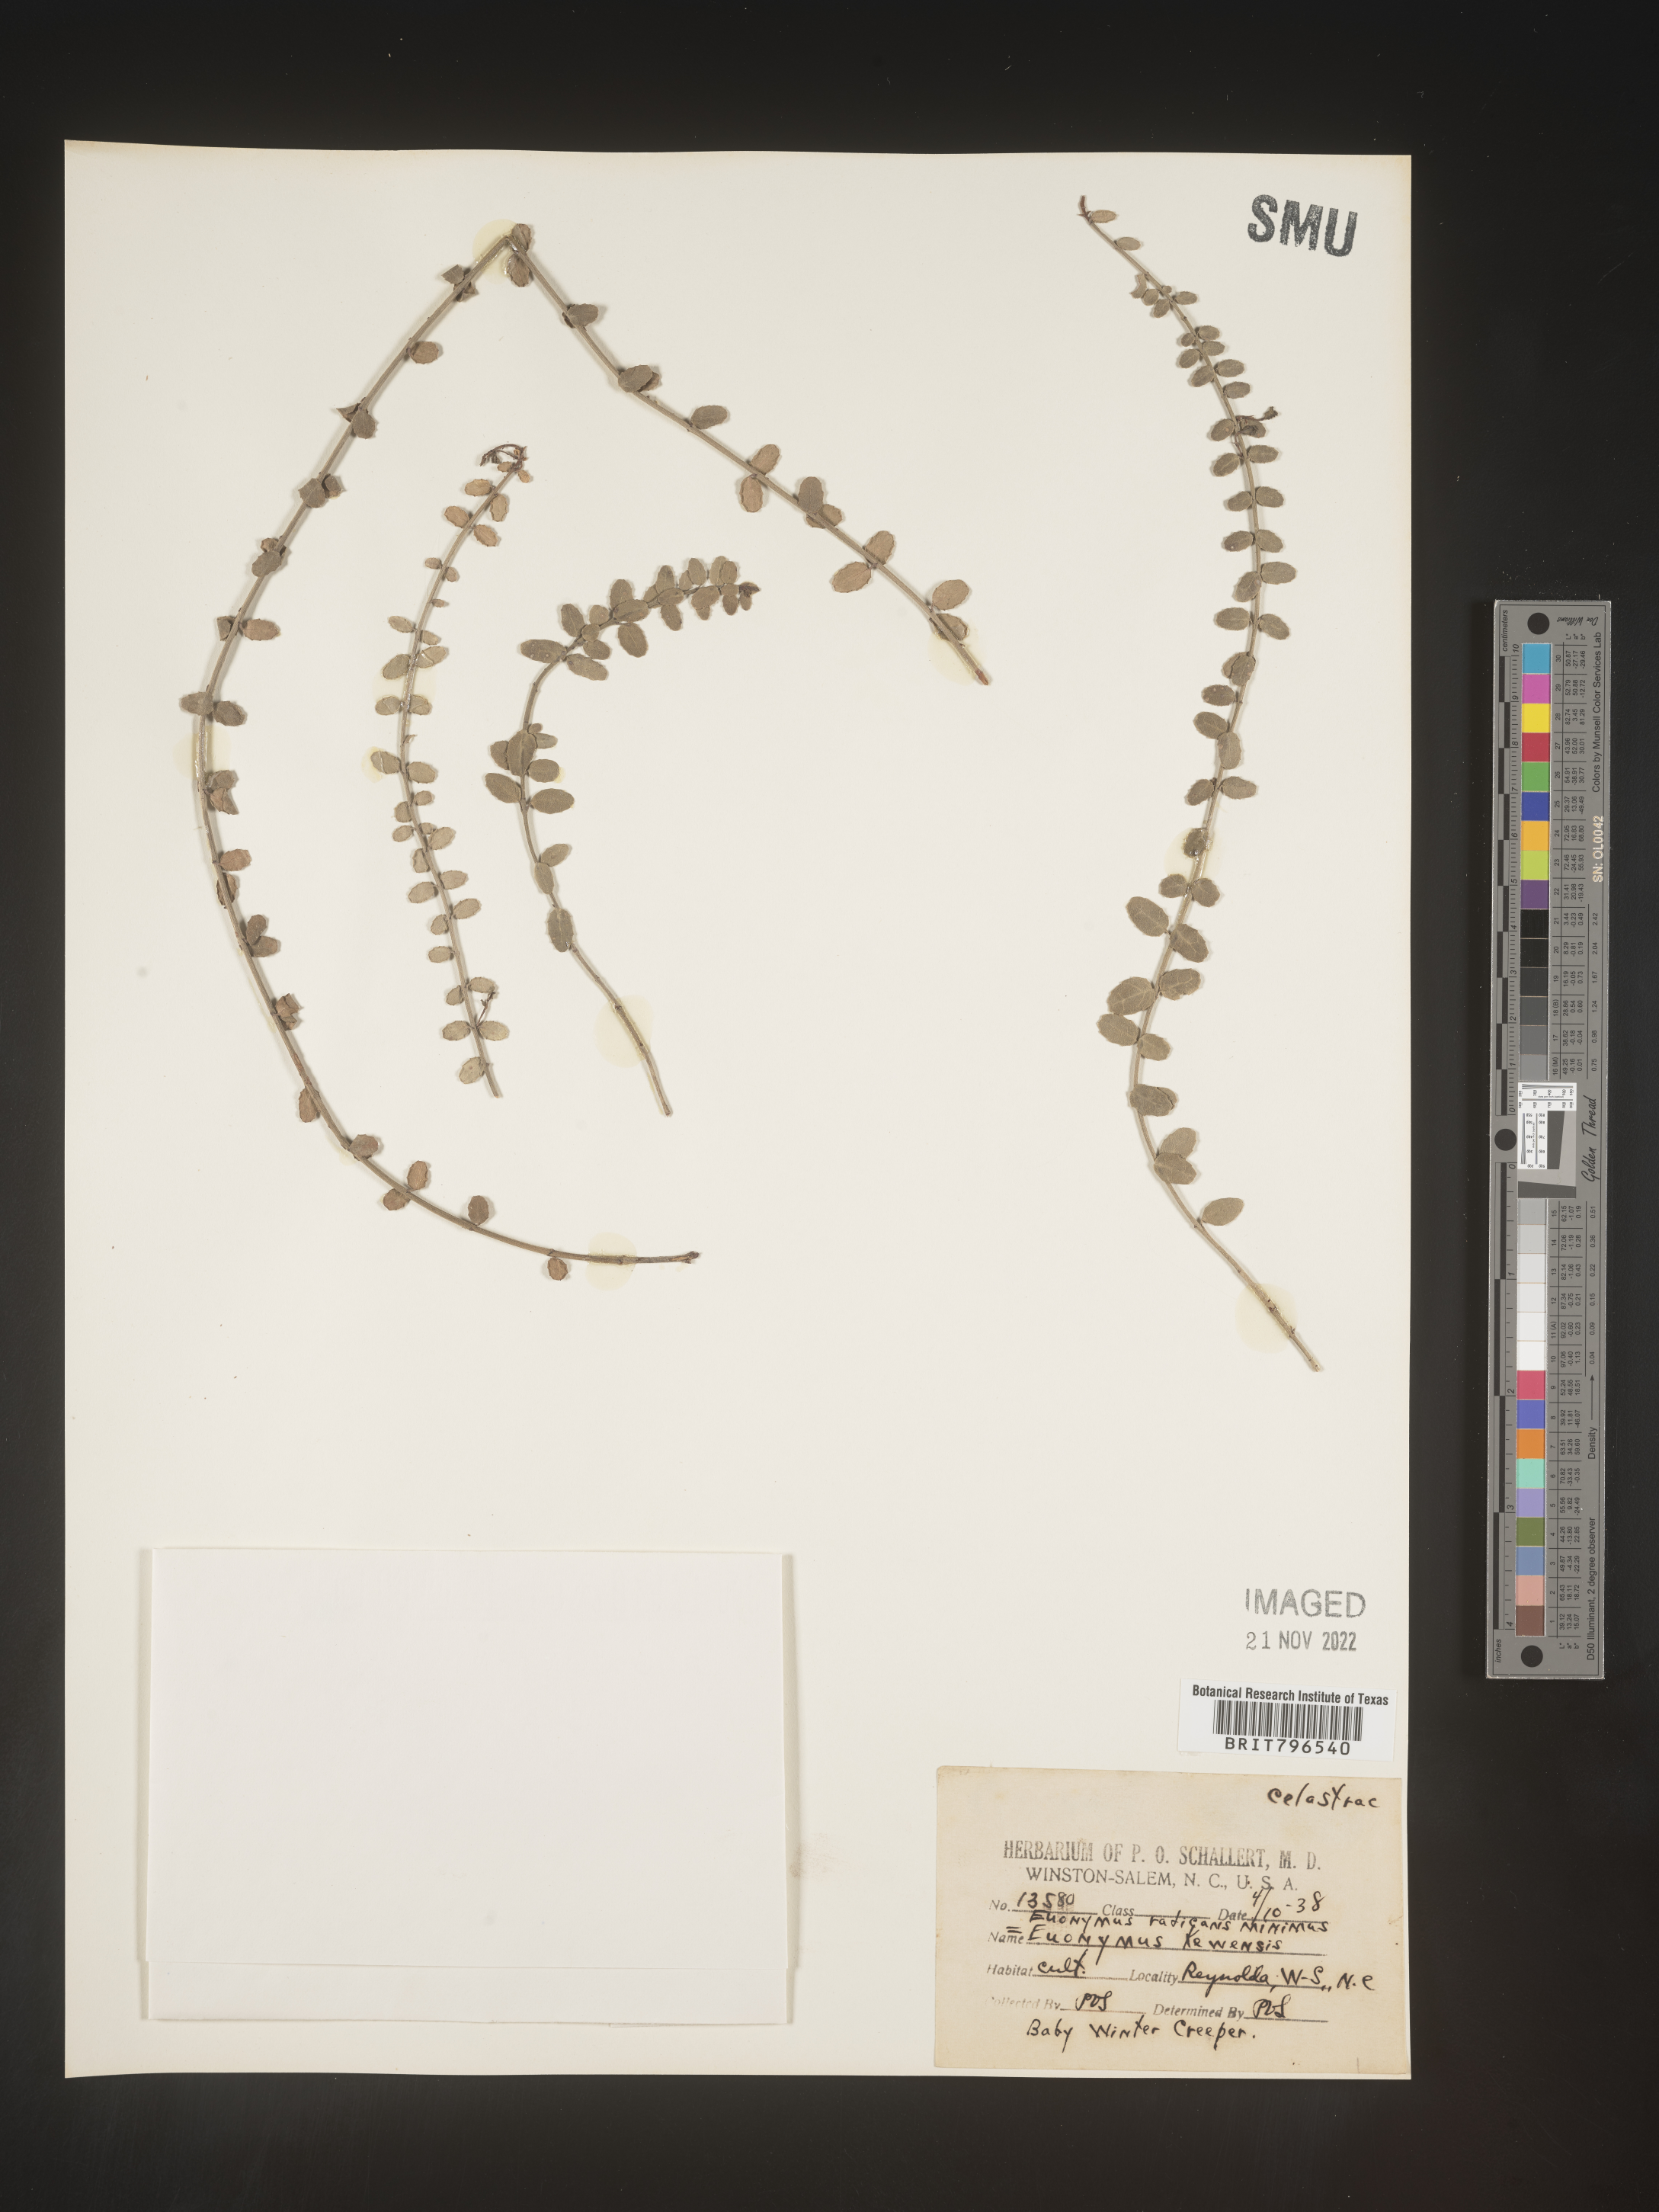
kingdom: Plantae
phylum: Tracheophyta
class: Magnoliopsida
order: Celastrales
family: Celastraceae
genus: Euonymus
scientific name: Euonymus
